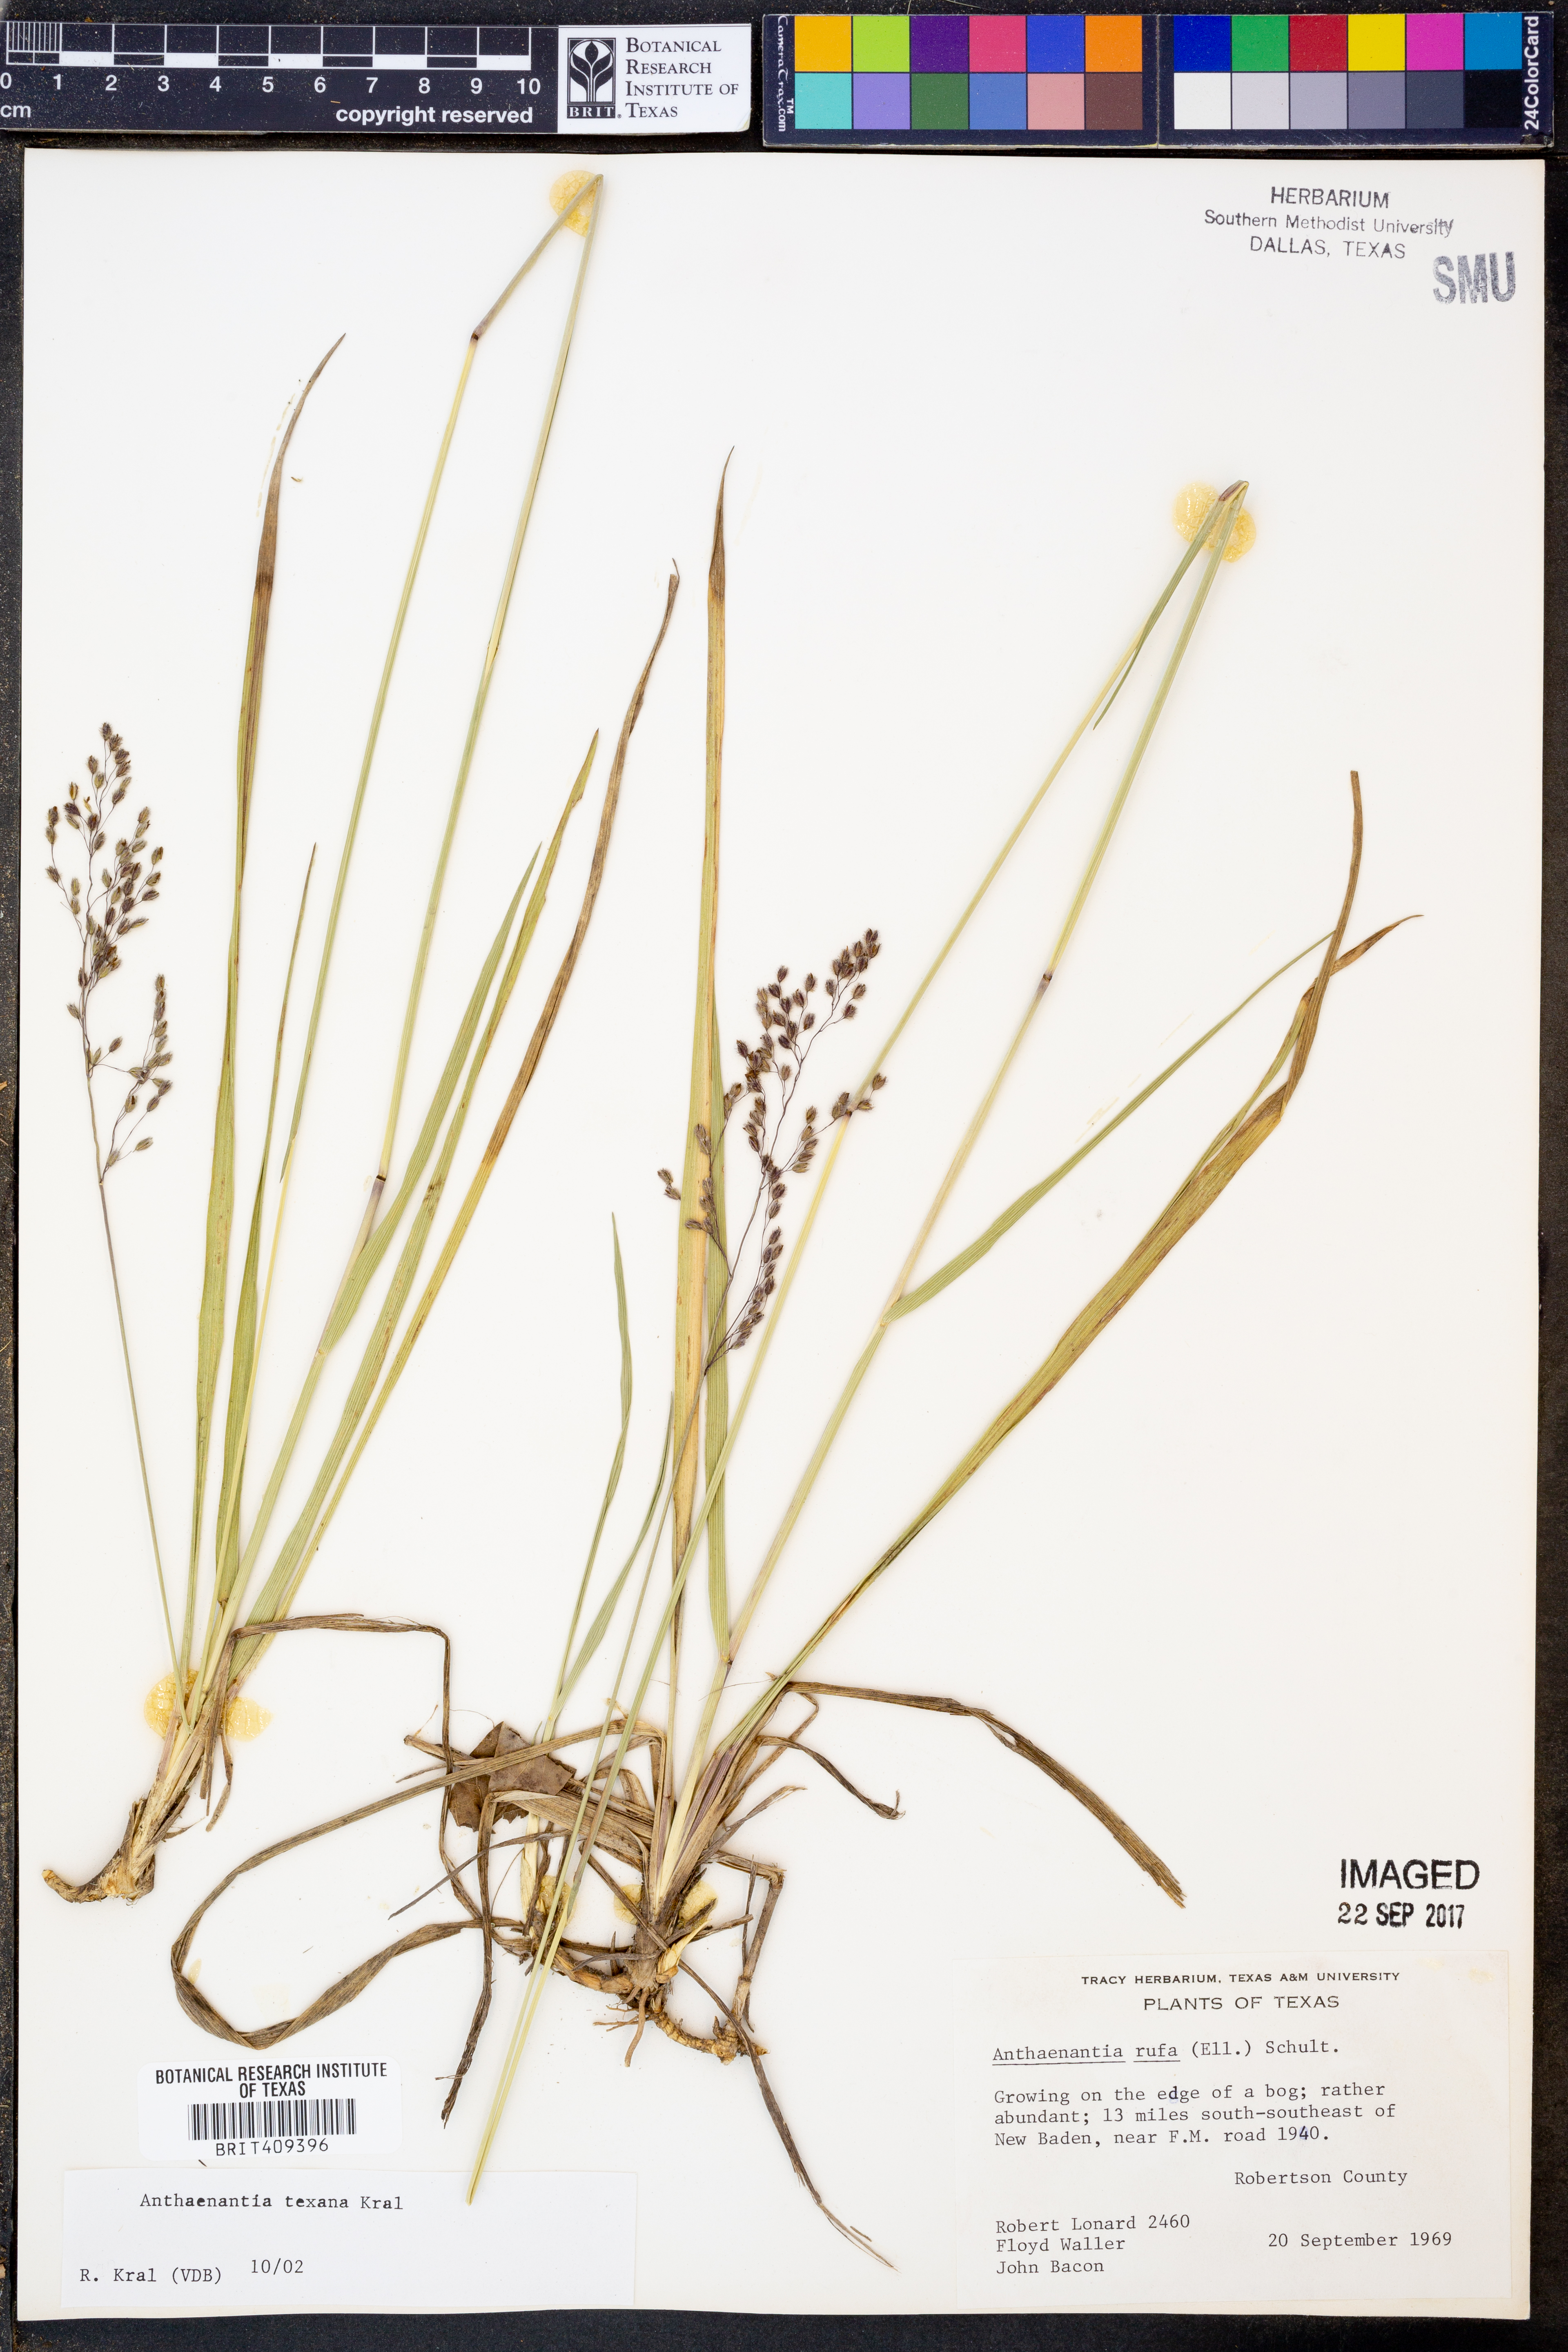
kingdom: Plantae
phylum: Tracheophyta
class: Liliopsida
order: Poales
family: Poaceae
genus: Anthenantia
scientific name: Anthenantia rufa
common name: Purple silkyscale
